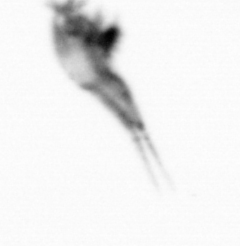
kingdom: Animalia
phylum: Arthropoda
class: Copepoda
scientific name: Copepoda
